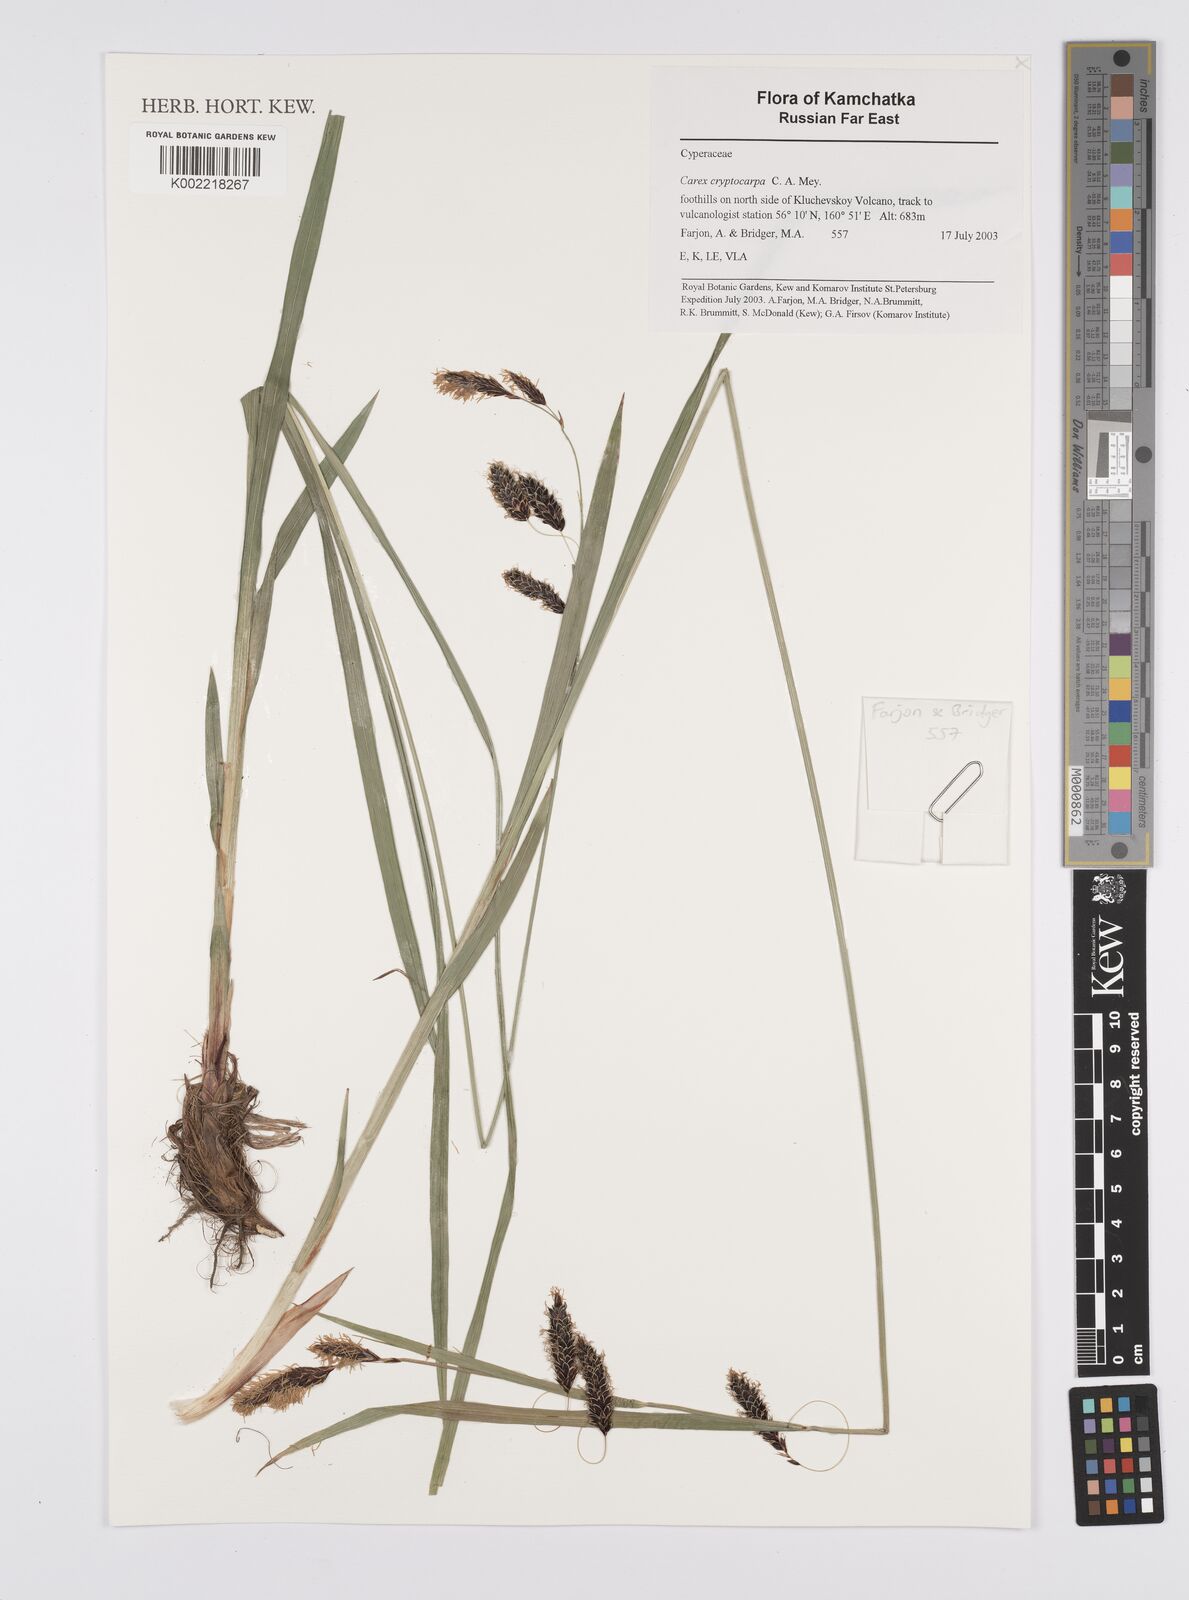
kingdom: Plantae
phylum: Tracheophyta
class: Liliopsida
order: Poales
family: Cyperaceae
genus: Carex
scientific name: Carex lyngbyei
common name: Lyngbye's sedge
